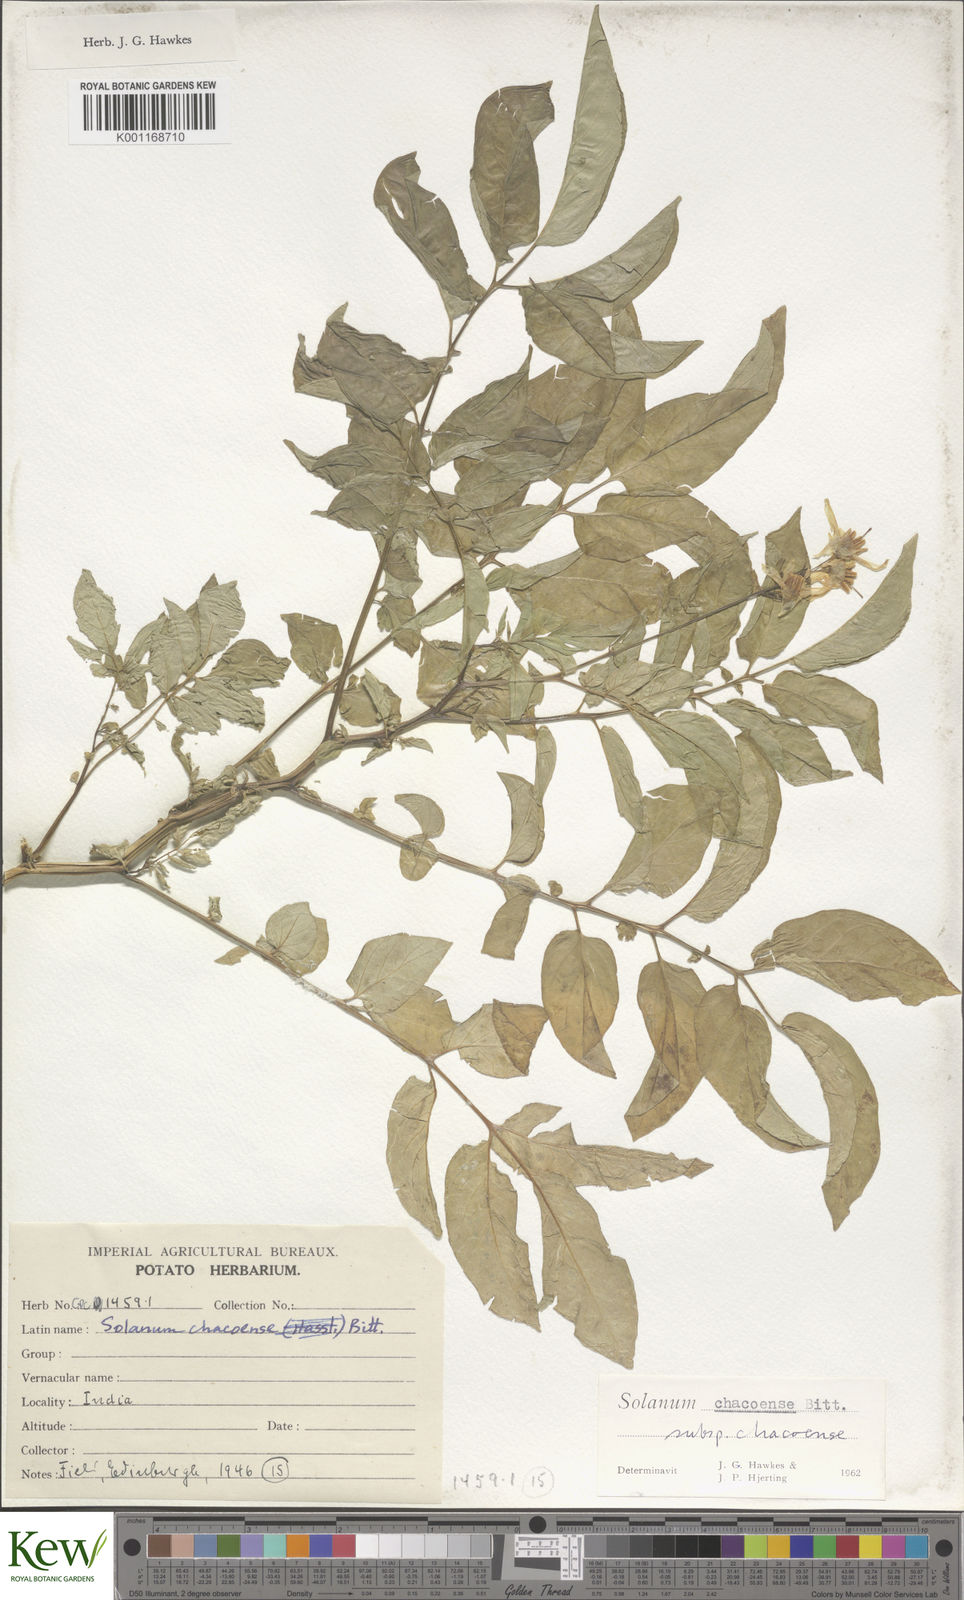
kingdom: Plantae
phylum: Tracheophyta
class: Magnoliopsida
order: Solanales
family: Solanaceae
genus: Solanum
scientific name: Solanum chacoense
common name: Chaco potato
